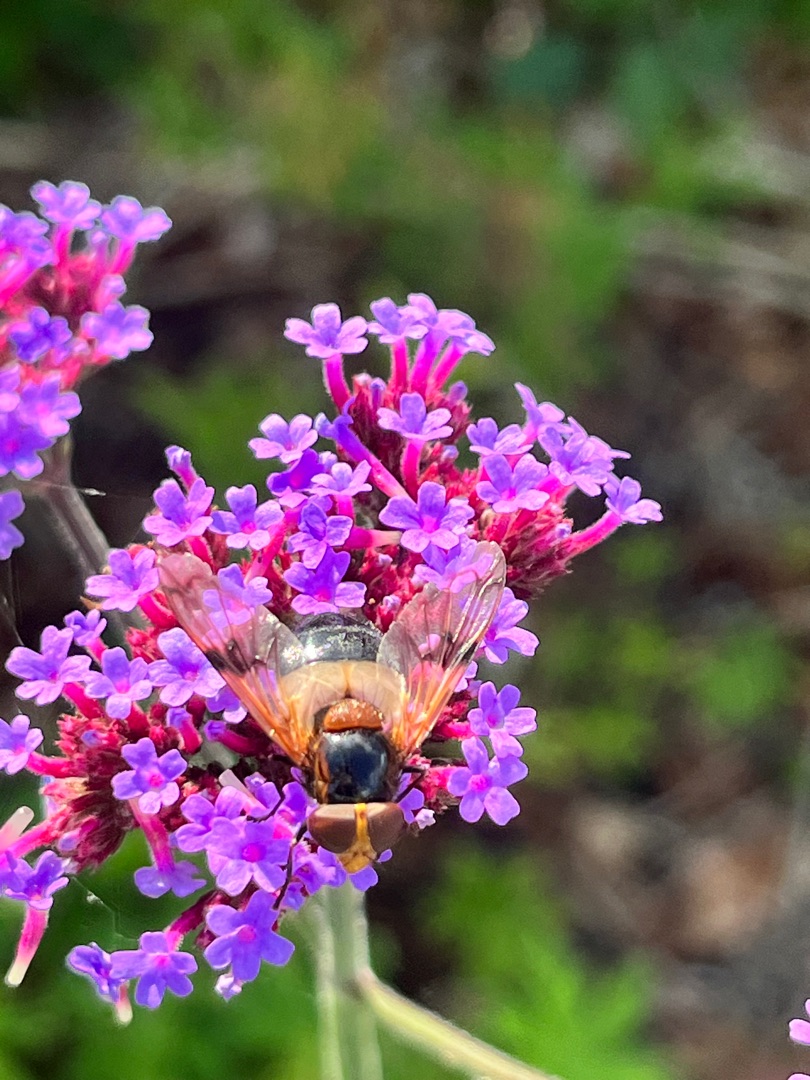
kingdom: Animalia
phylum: Arthropoda
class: Insecta
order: Diptera
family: Syrphidae
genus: Volucella
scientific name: Volucella pellucens
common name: Hvidbåndet humlesvirreflue
